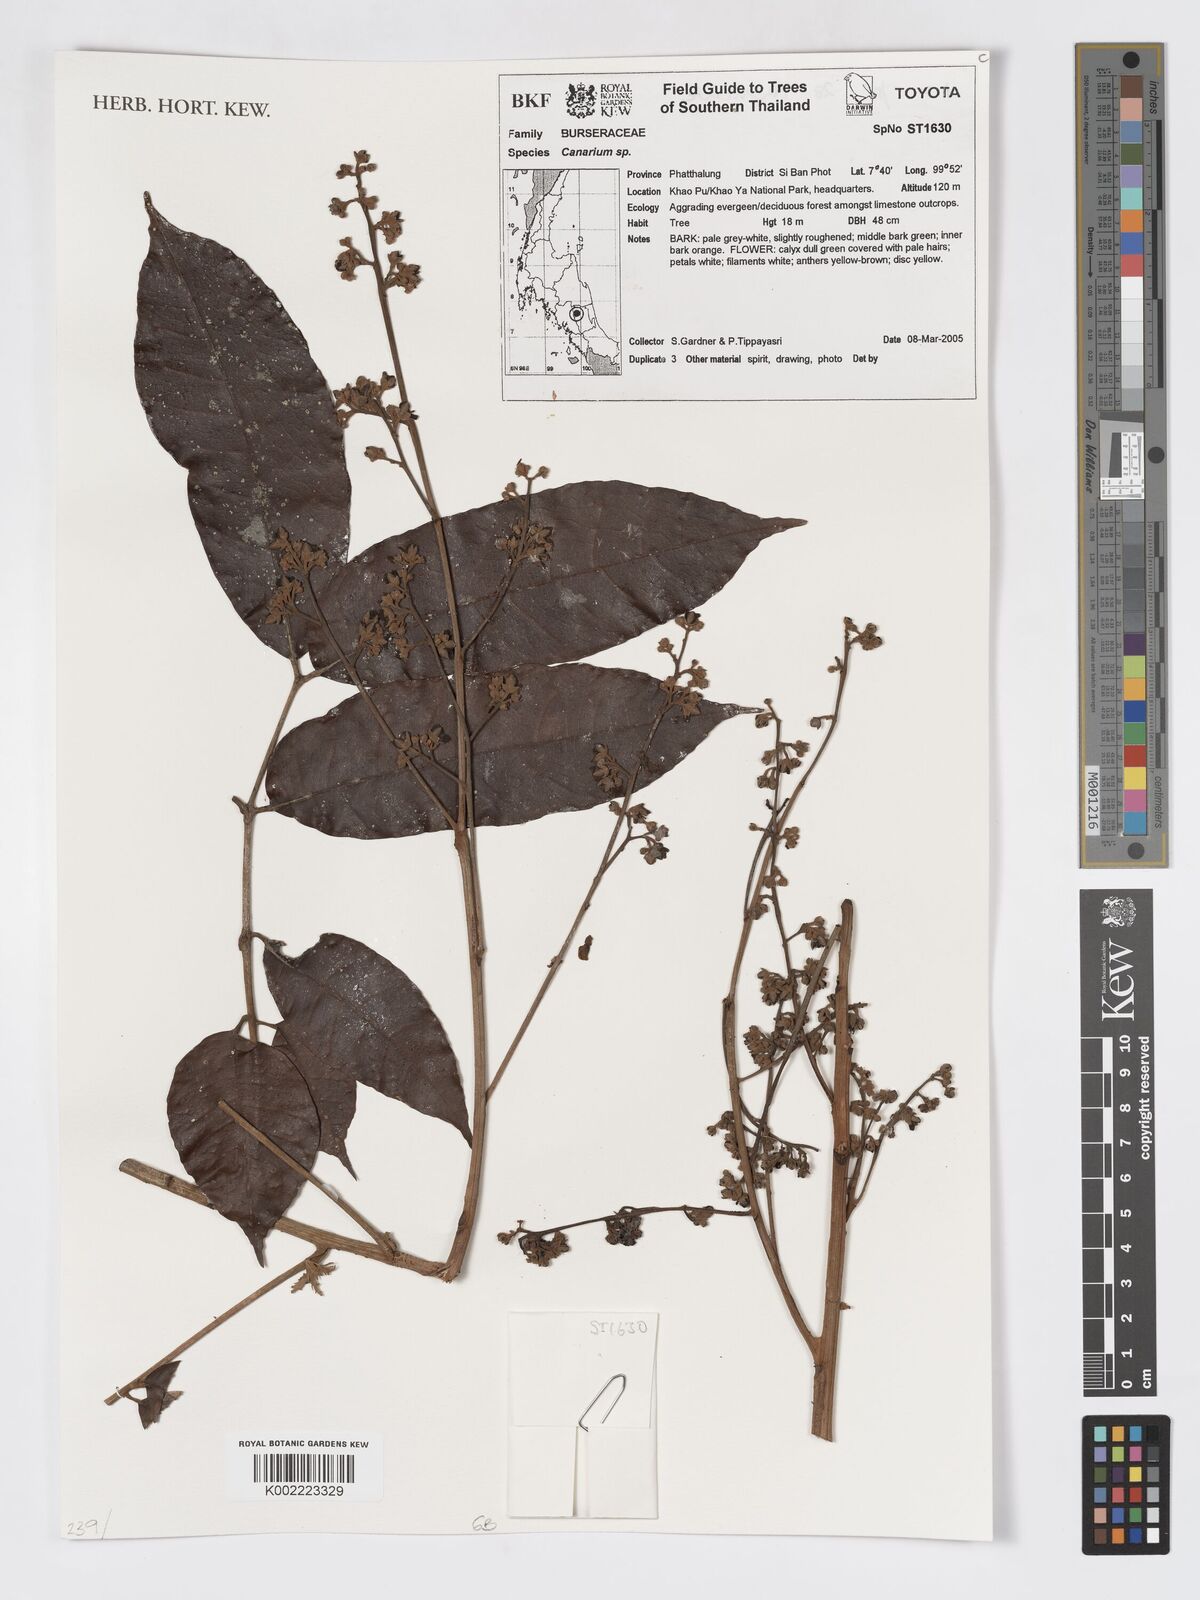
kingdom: Plantae
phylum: Tracheophyta
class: Magnoliopsida
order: Sapindales
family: Burseraceae
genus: Canarium
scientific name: Canarium
